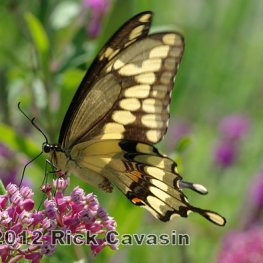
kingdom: Animalia
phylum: Arthropoda
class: Insecta
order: Lepidoptera
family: Papilionidae
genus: Papilio
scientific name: Papilio cresphontes
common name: Eastern Giant Swallowtail
